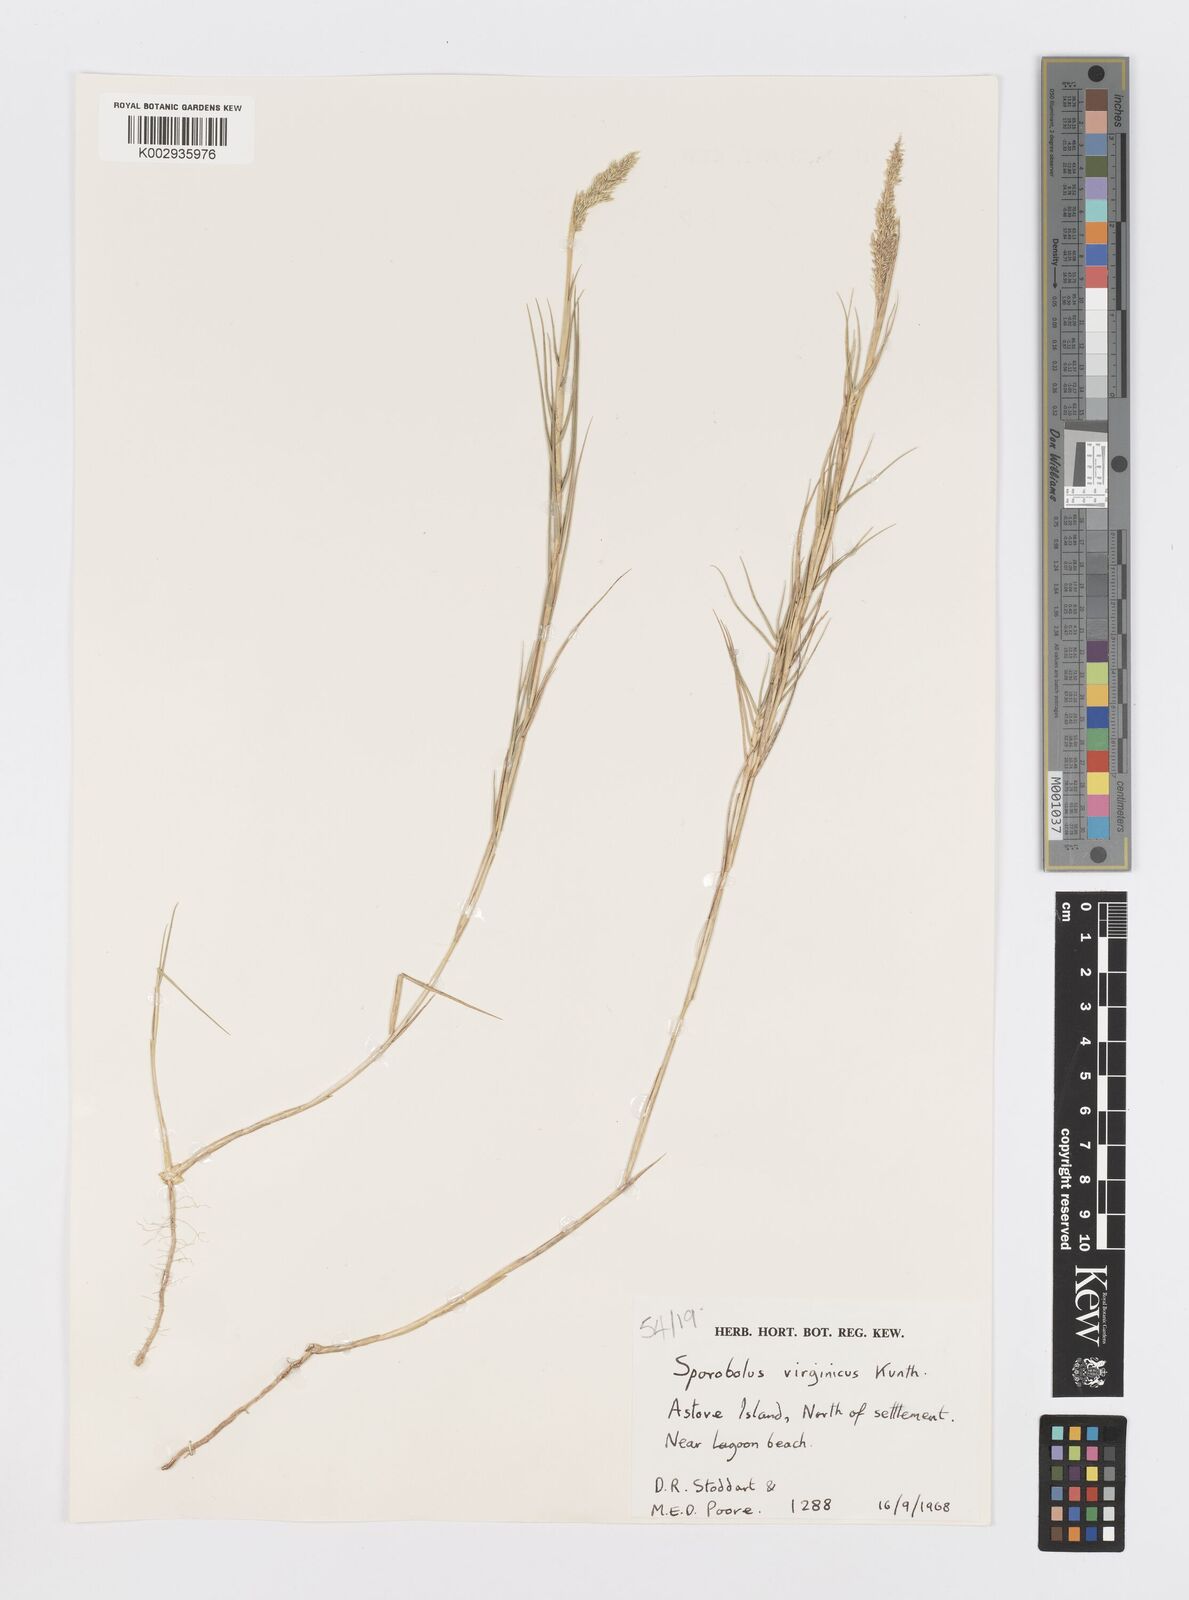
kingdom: Plantae
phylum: Tracheophyta
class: Liliopsida
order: Poales
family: Poaceae
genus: Sporobolus
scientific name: Sporobolus virginicus
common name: Beach dropseed
